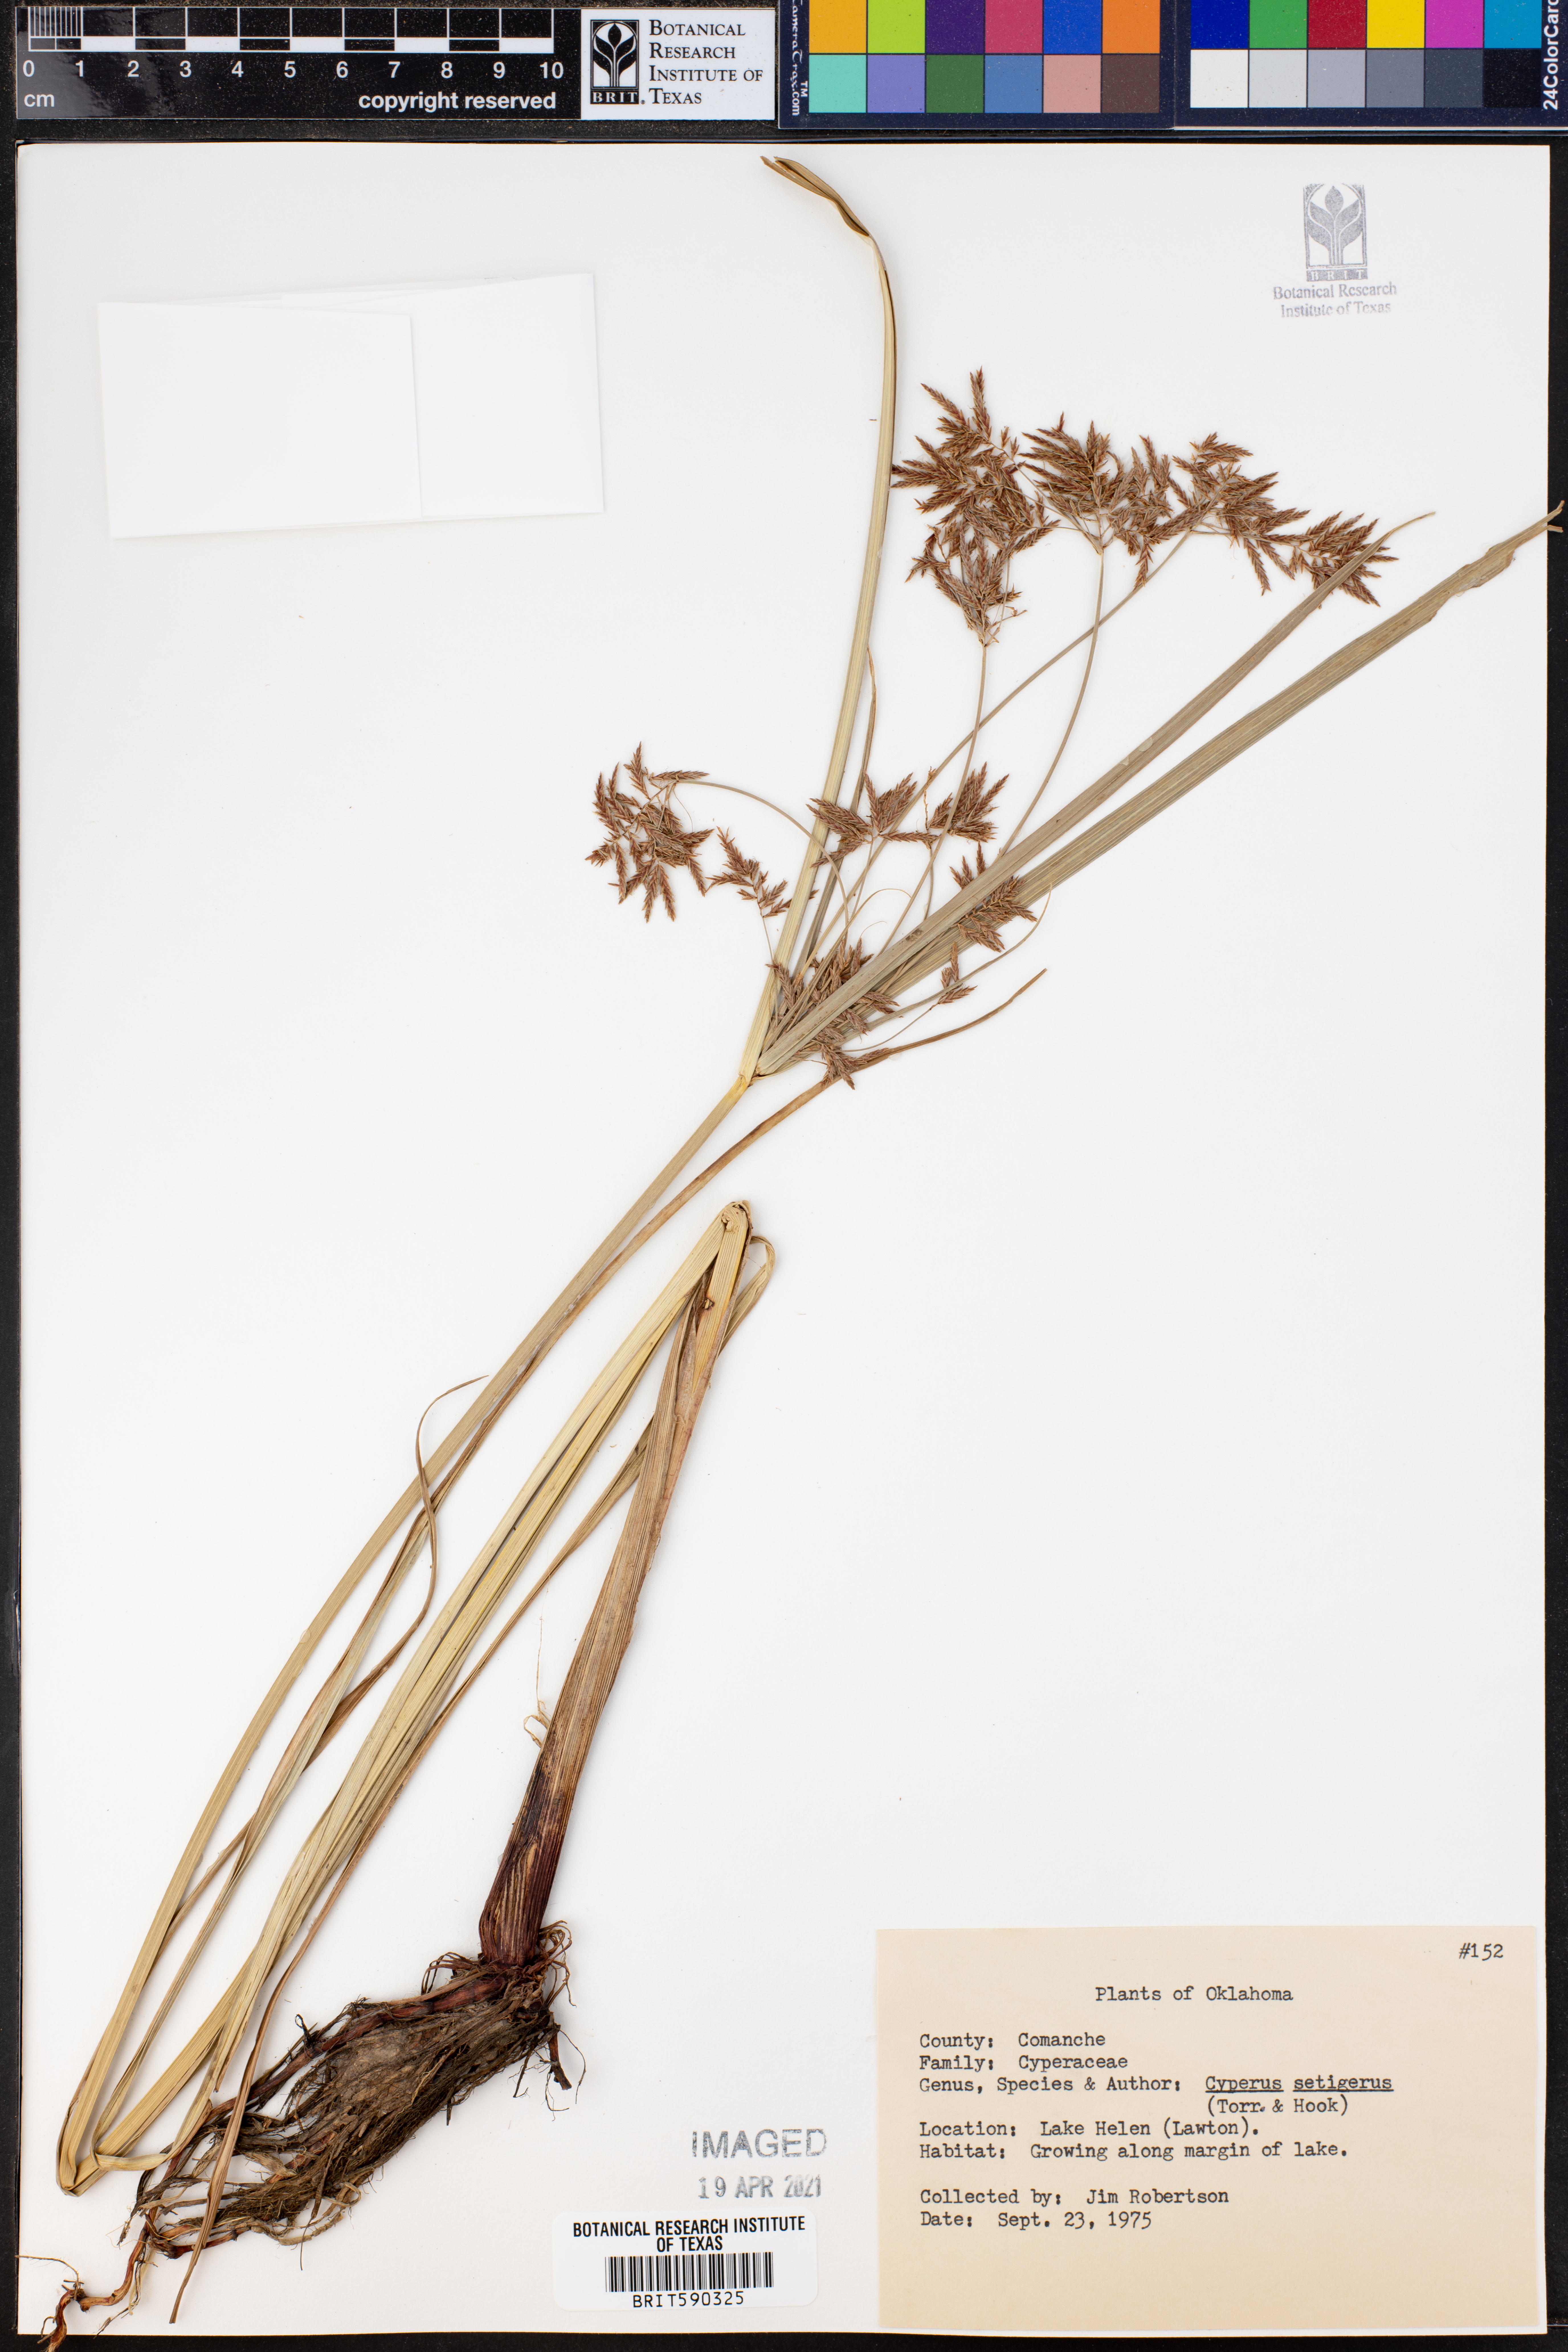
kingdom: Plantae
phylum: Tracheophyta
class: Liliopsida
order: Poales
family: Cyperaceae
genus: Cyperus
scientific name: Cyperus setigerus
